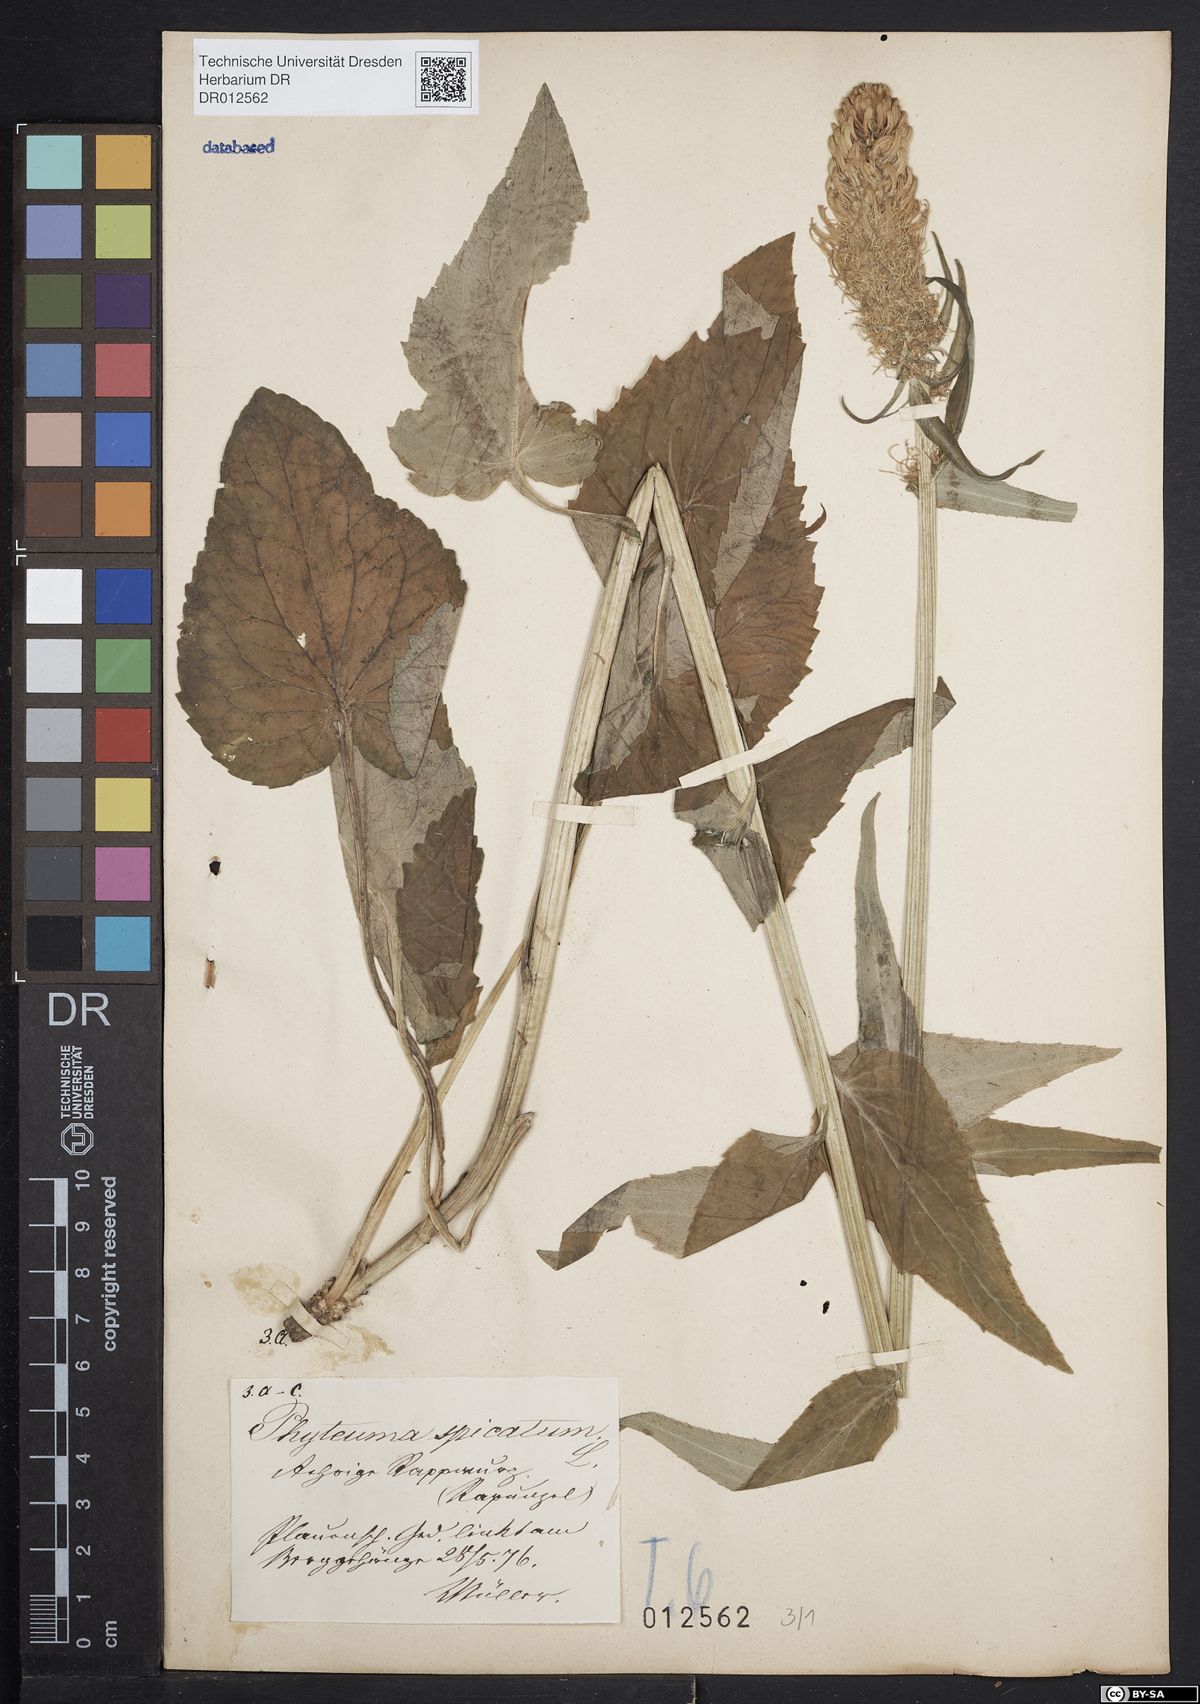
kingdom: Plantae
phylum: Tracheophyta
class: Magnoliopsida
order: Asterales
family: Campanulaceae
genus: Phyteuma
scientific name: Phyteuma spicatum
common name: Spiked rampion
